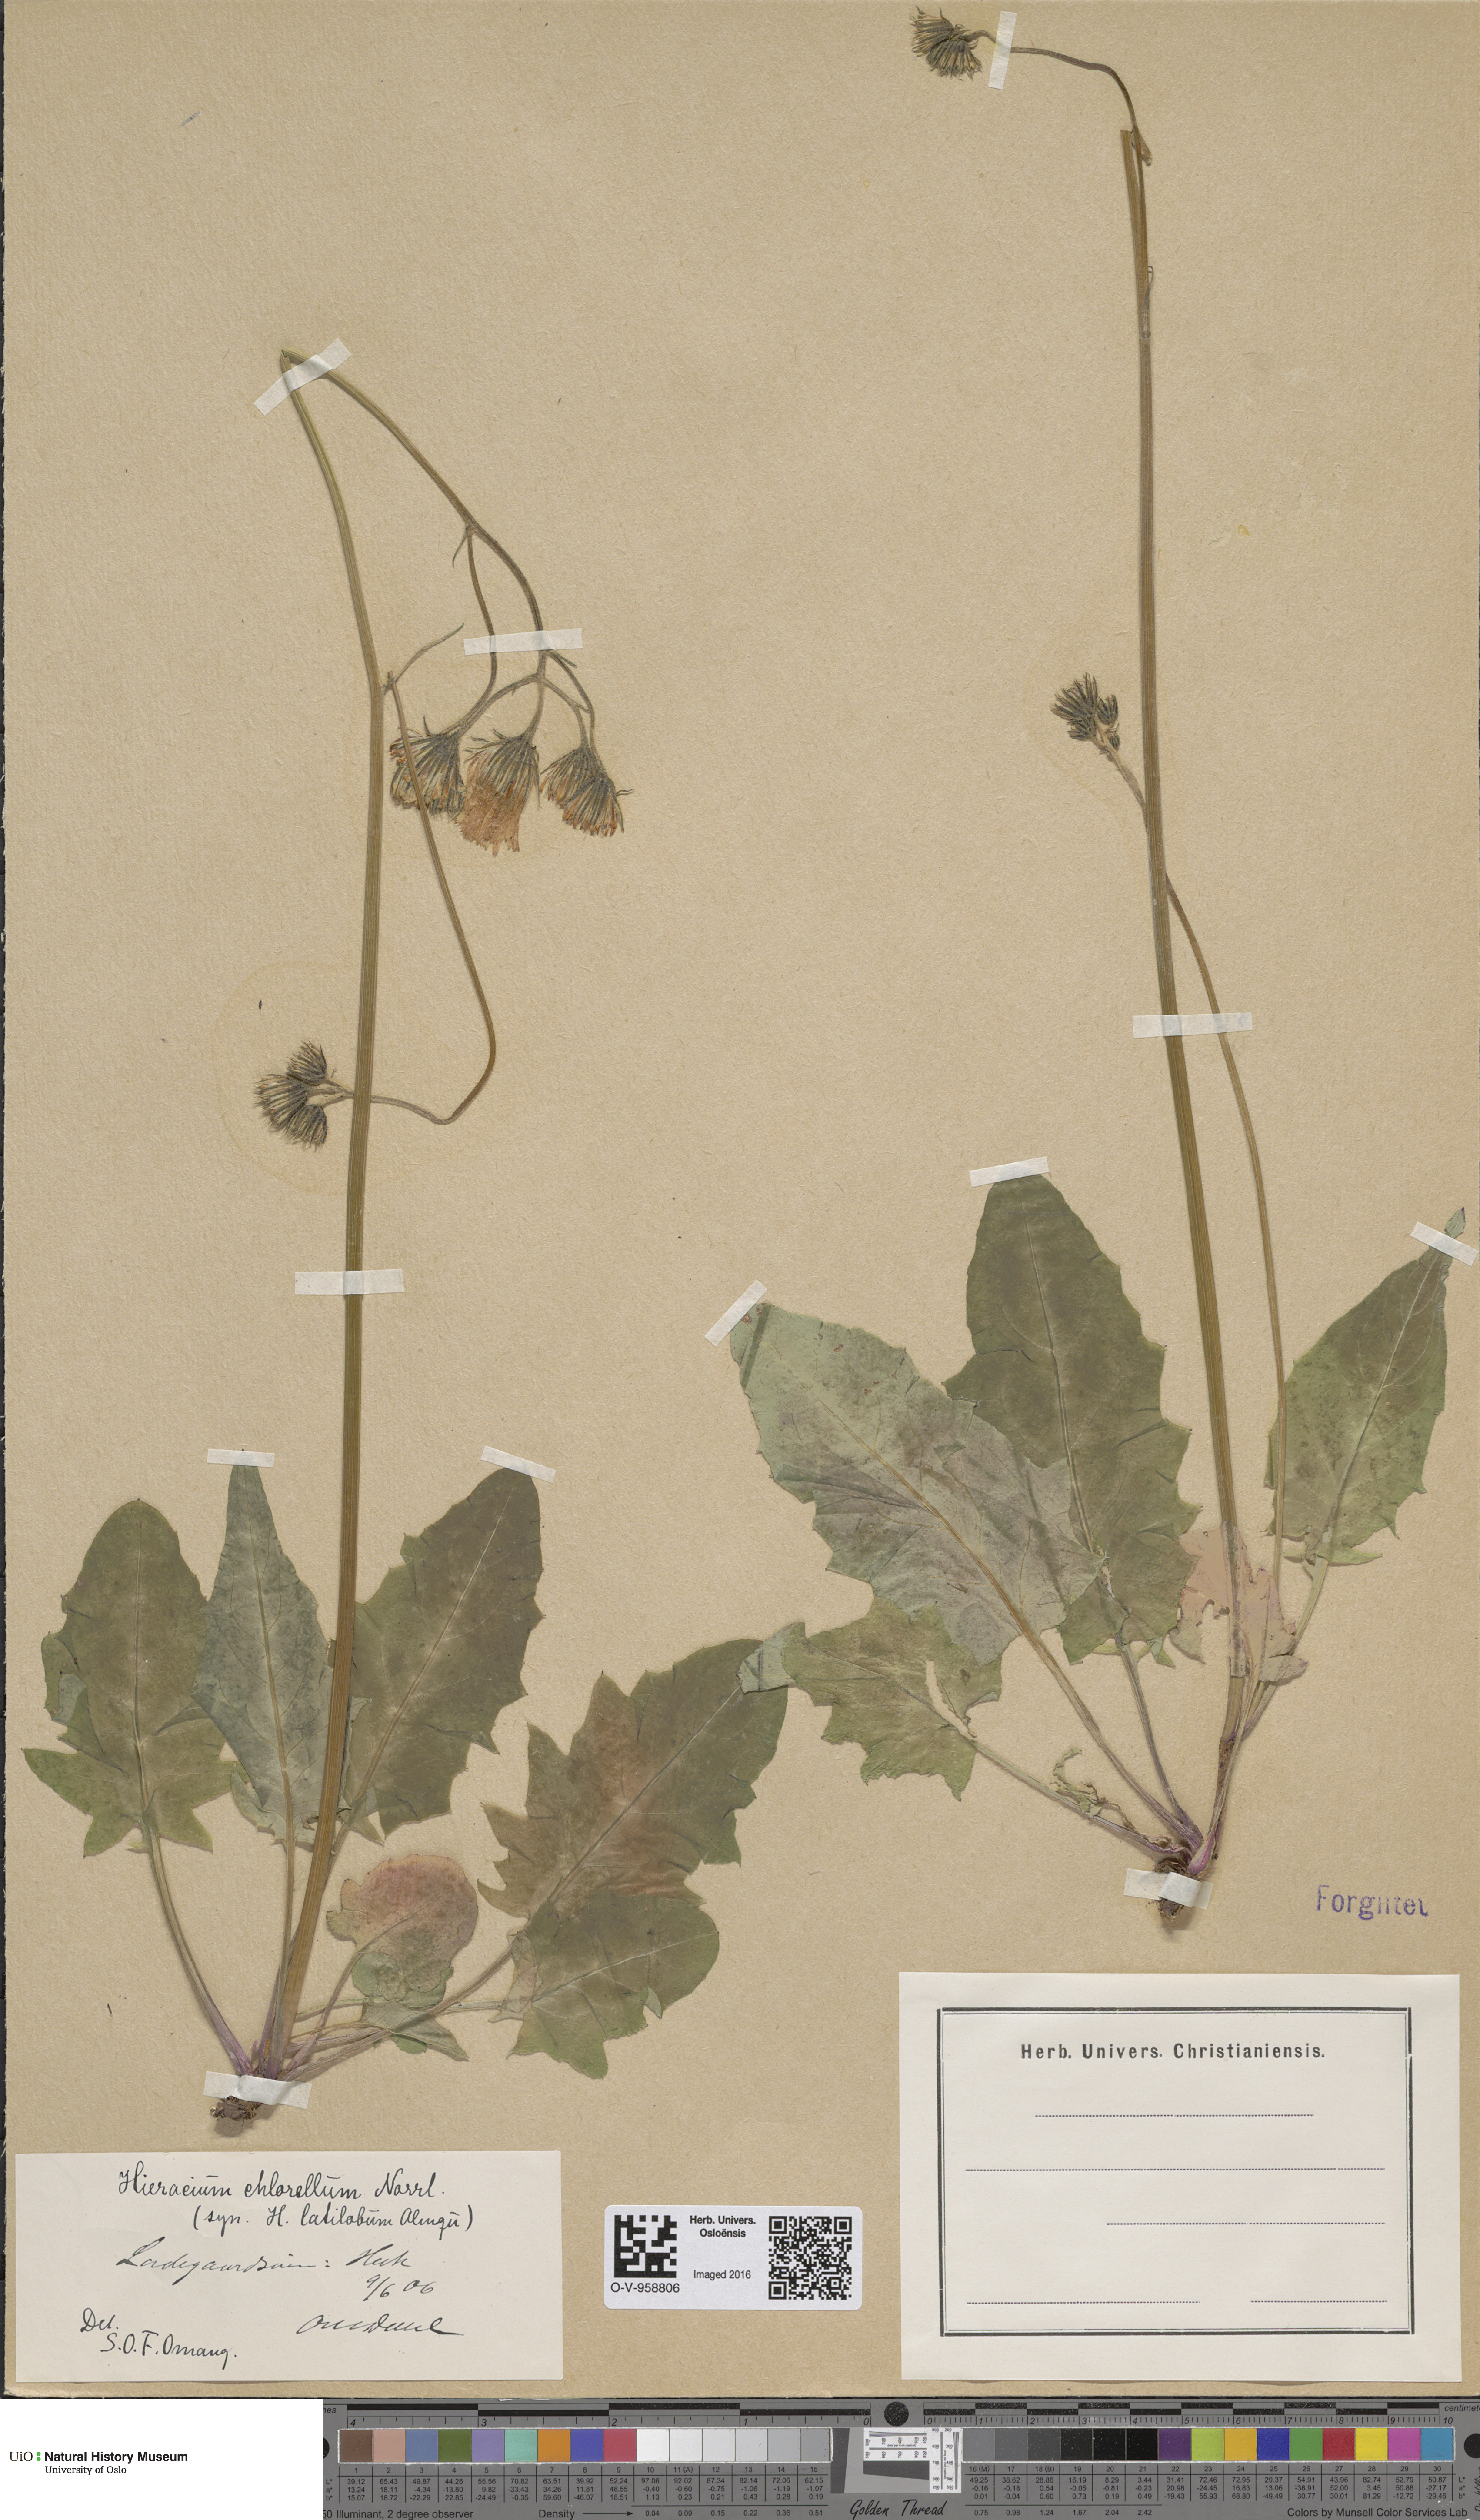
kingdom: Plantae
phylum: Tracheophyta
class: Magnoliopsida
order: Asterales
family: Asteraceae
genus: Hieracium
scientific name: Hieracium chlorellum
